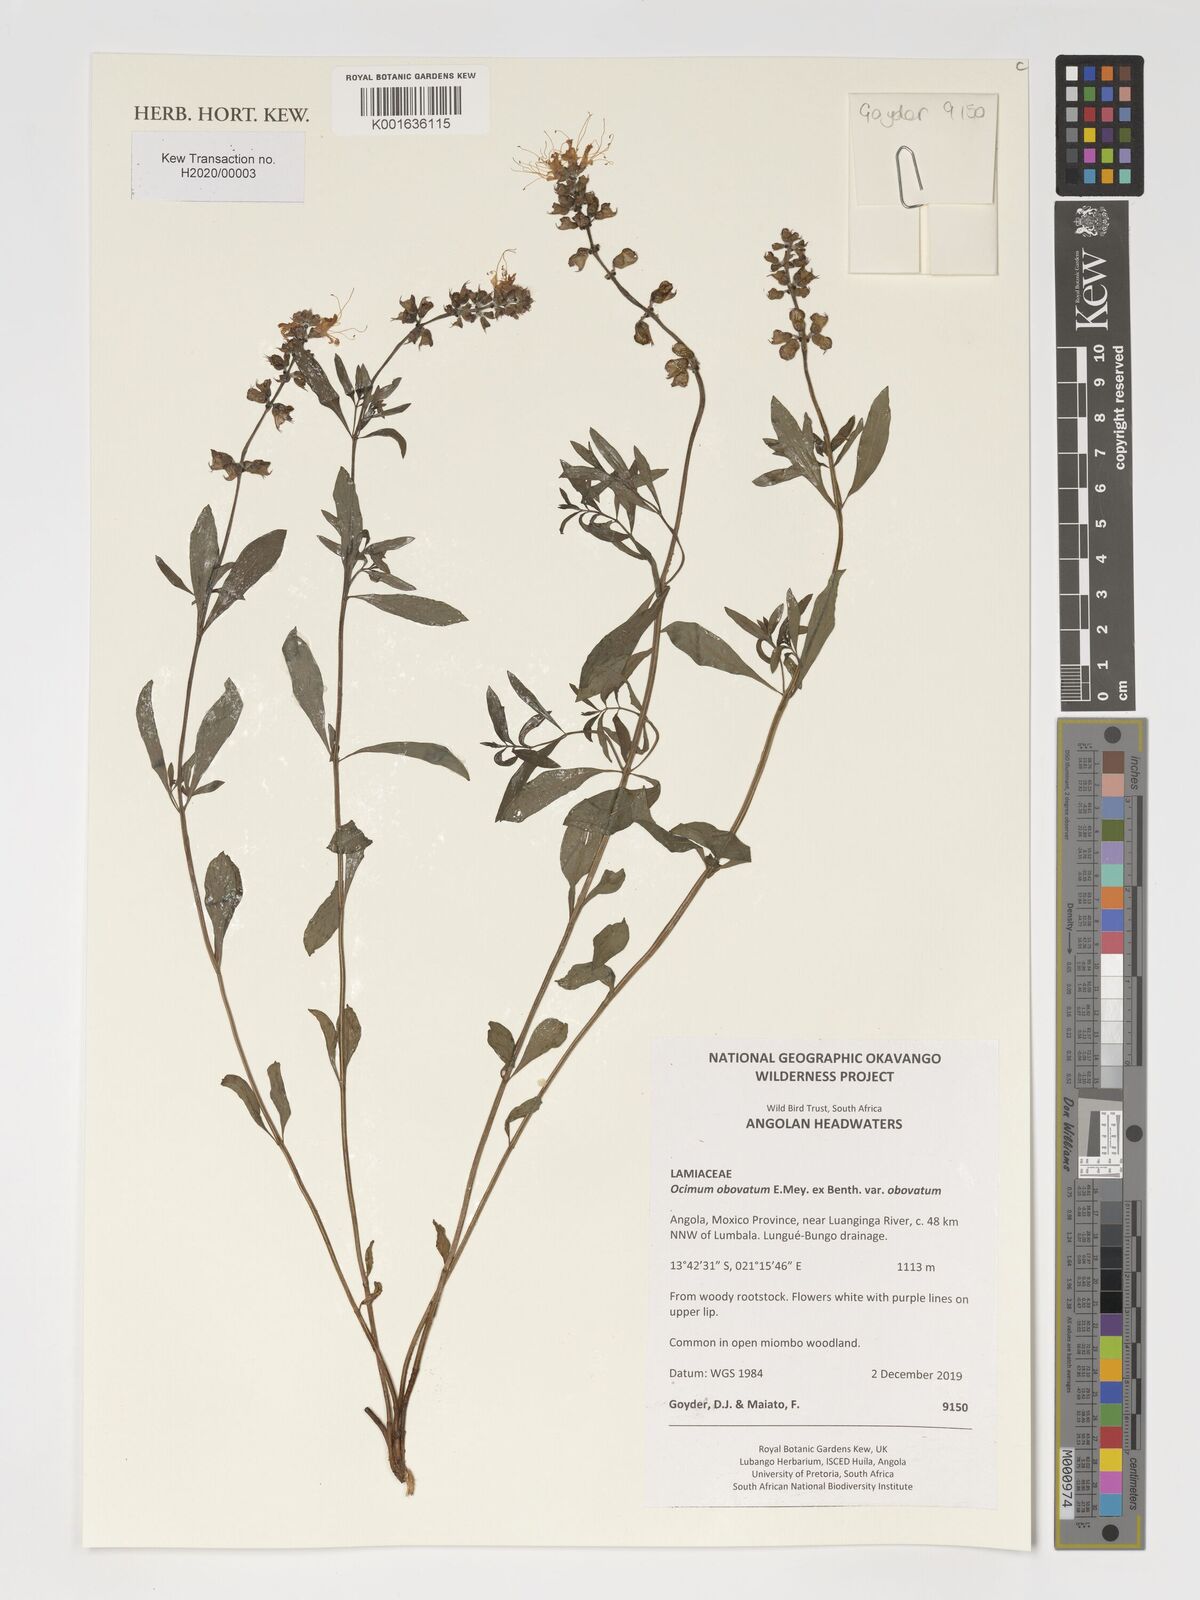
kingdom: Plantae
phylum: Tracheophyta
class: Magnoliopsida
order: Lamiales
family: Lamiaceae
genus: Ocimum
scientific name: Ocimum obovatum
